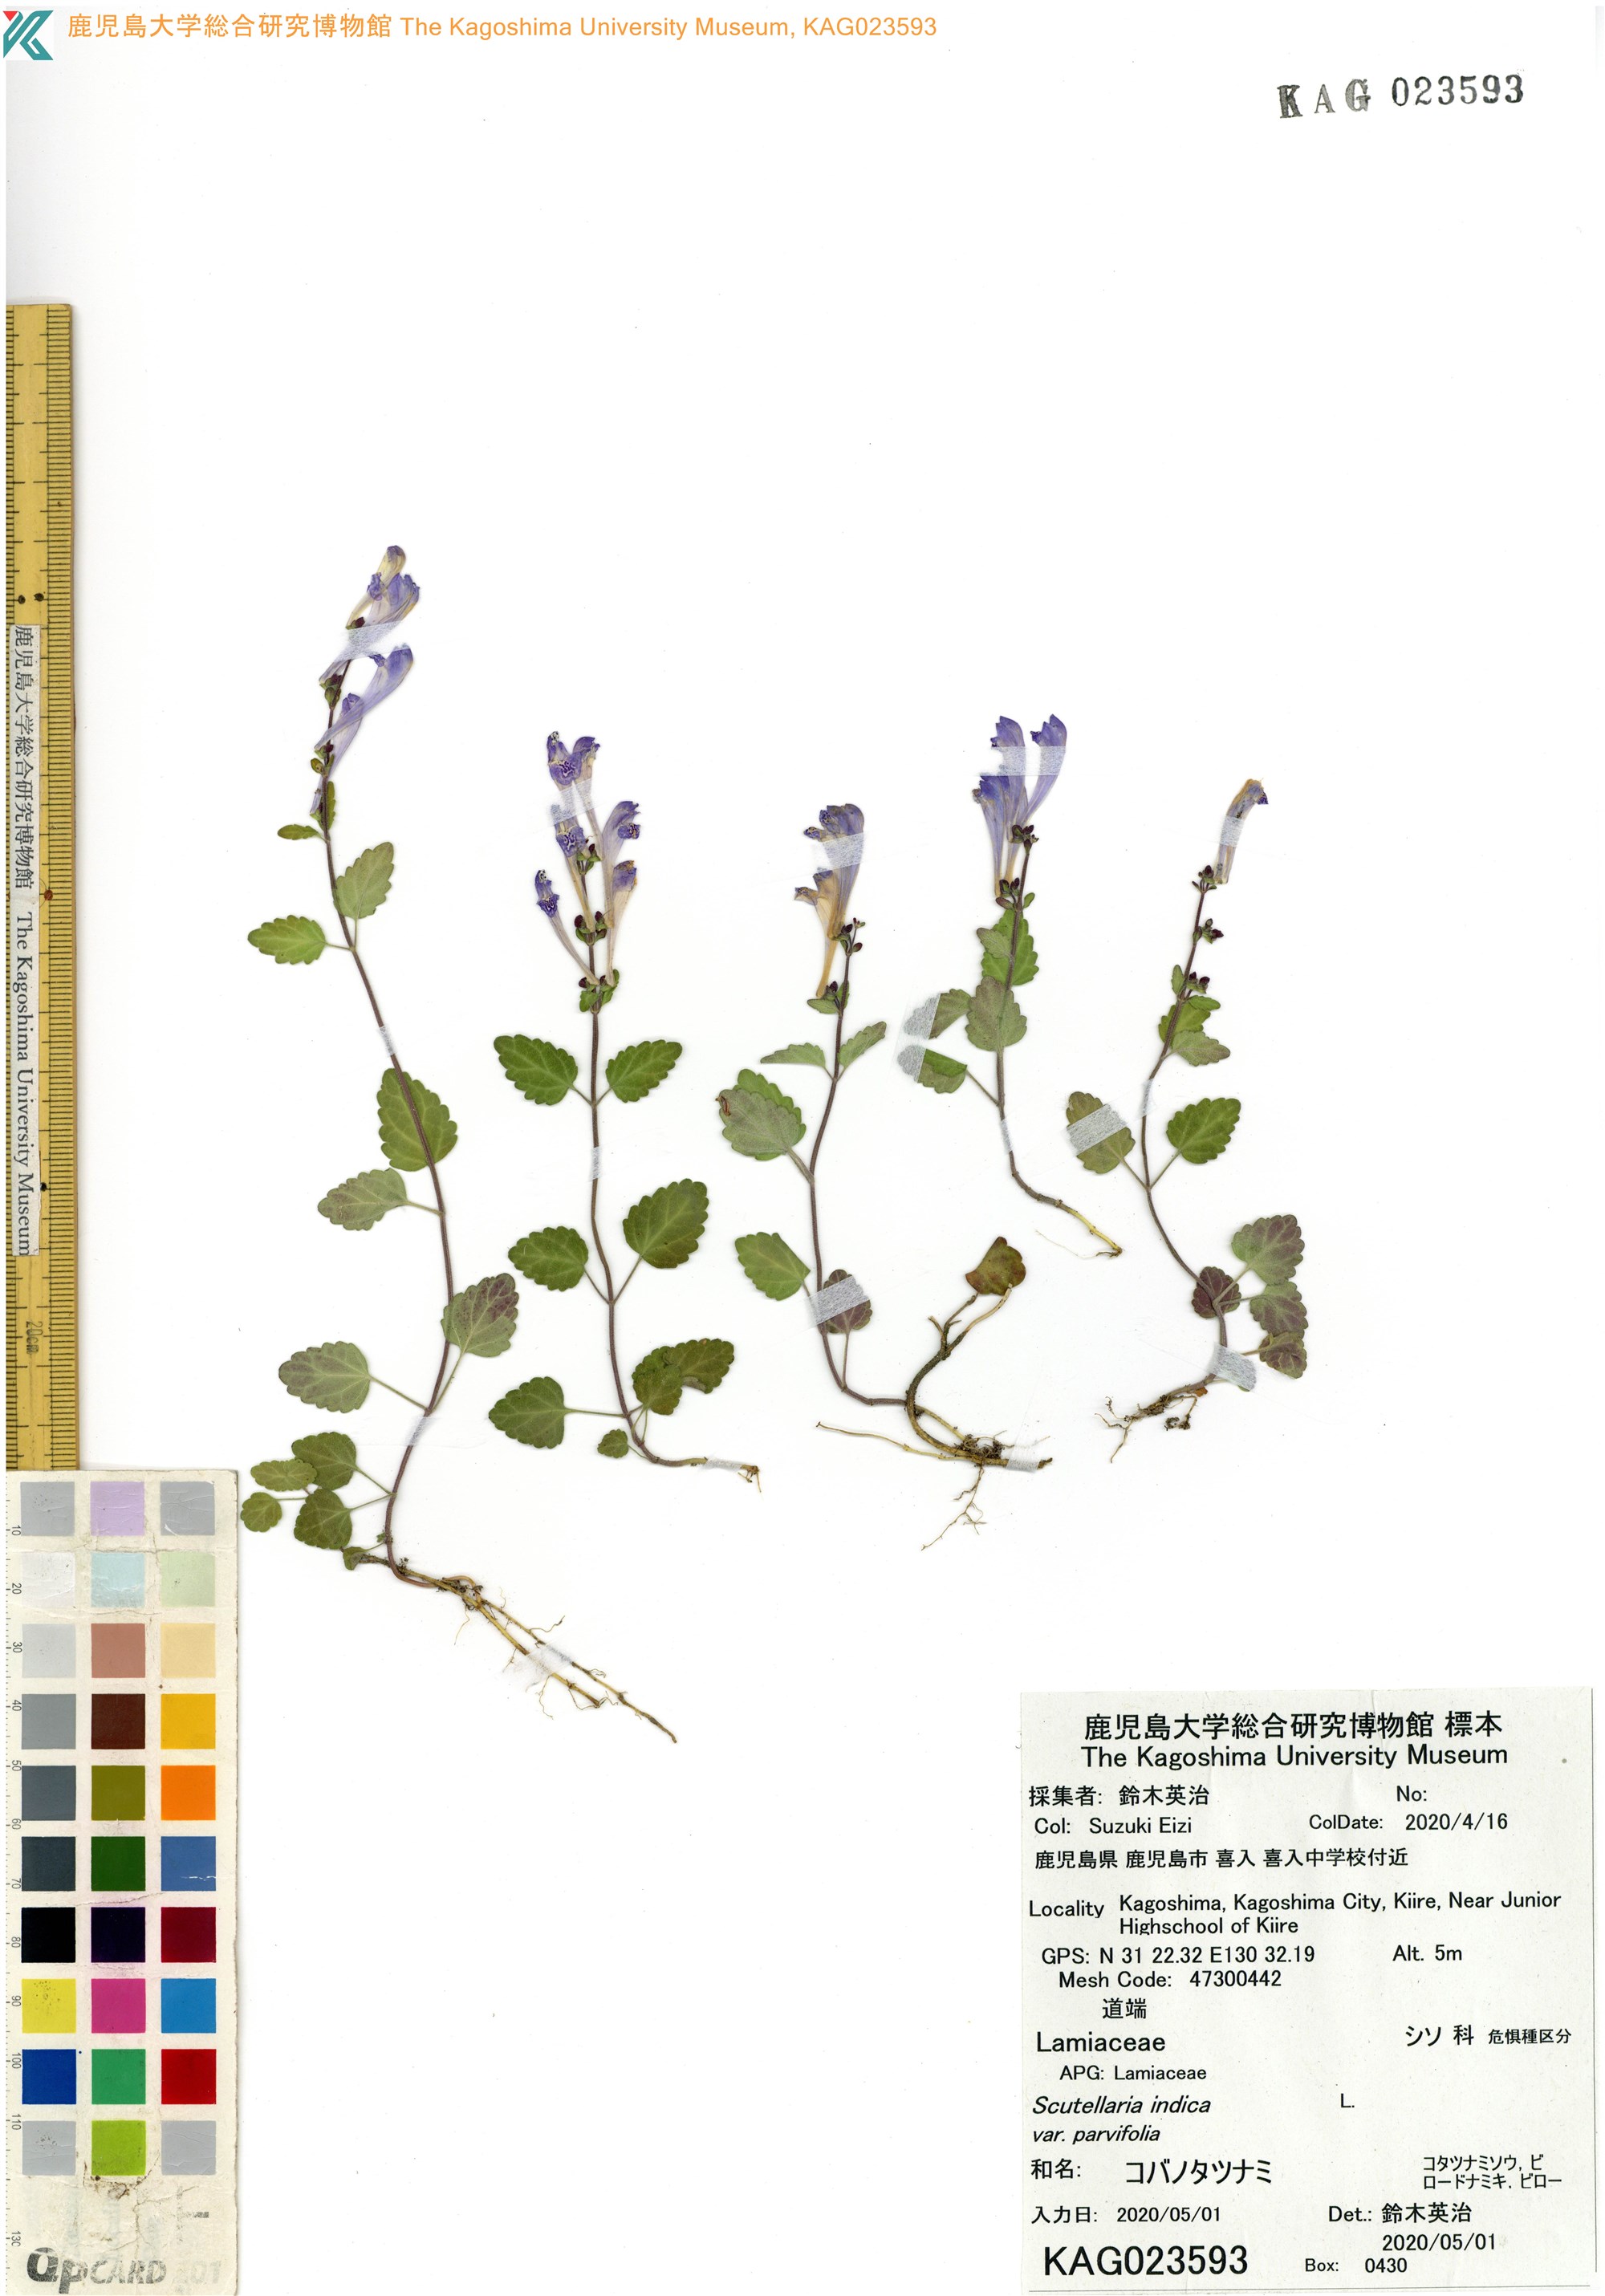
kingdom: Plantae
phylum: Tracheophyta
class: Magnoliopsida
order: Lamiales
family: Lamiaceae
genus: Scutellaria
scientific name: Scutellaria indica
